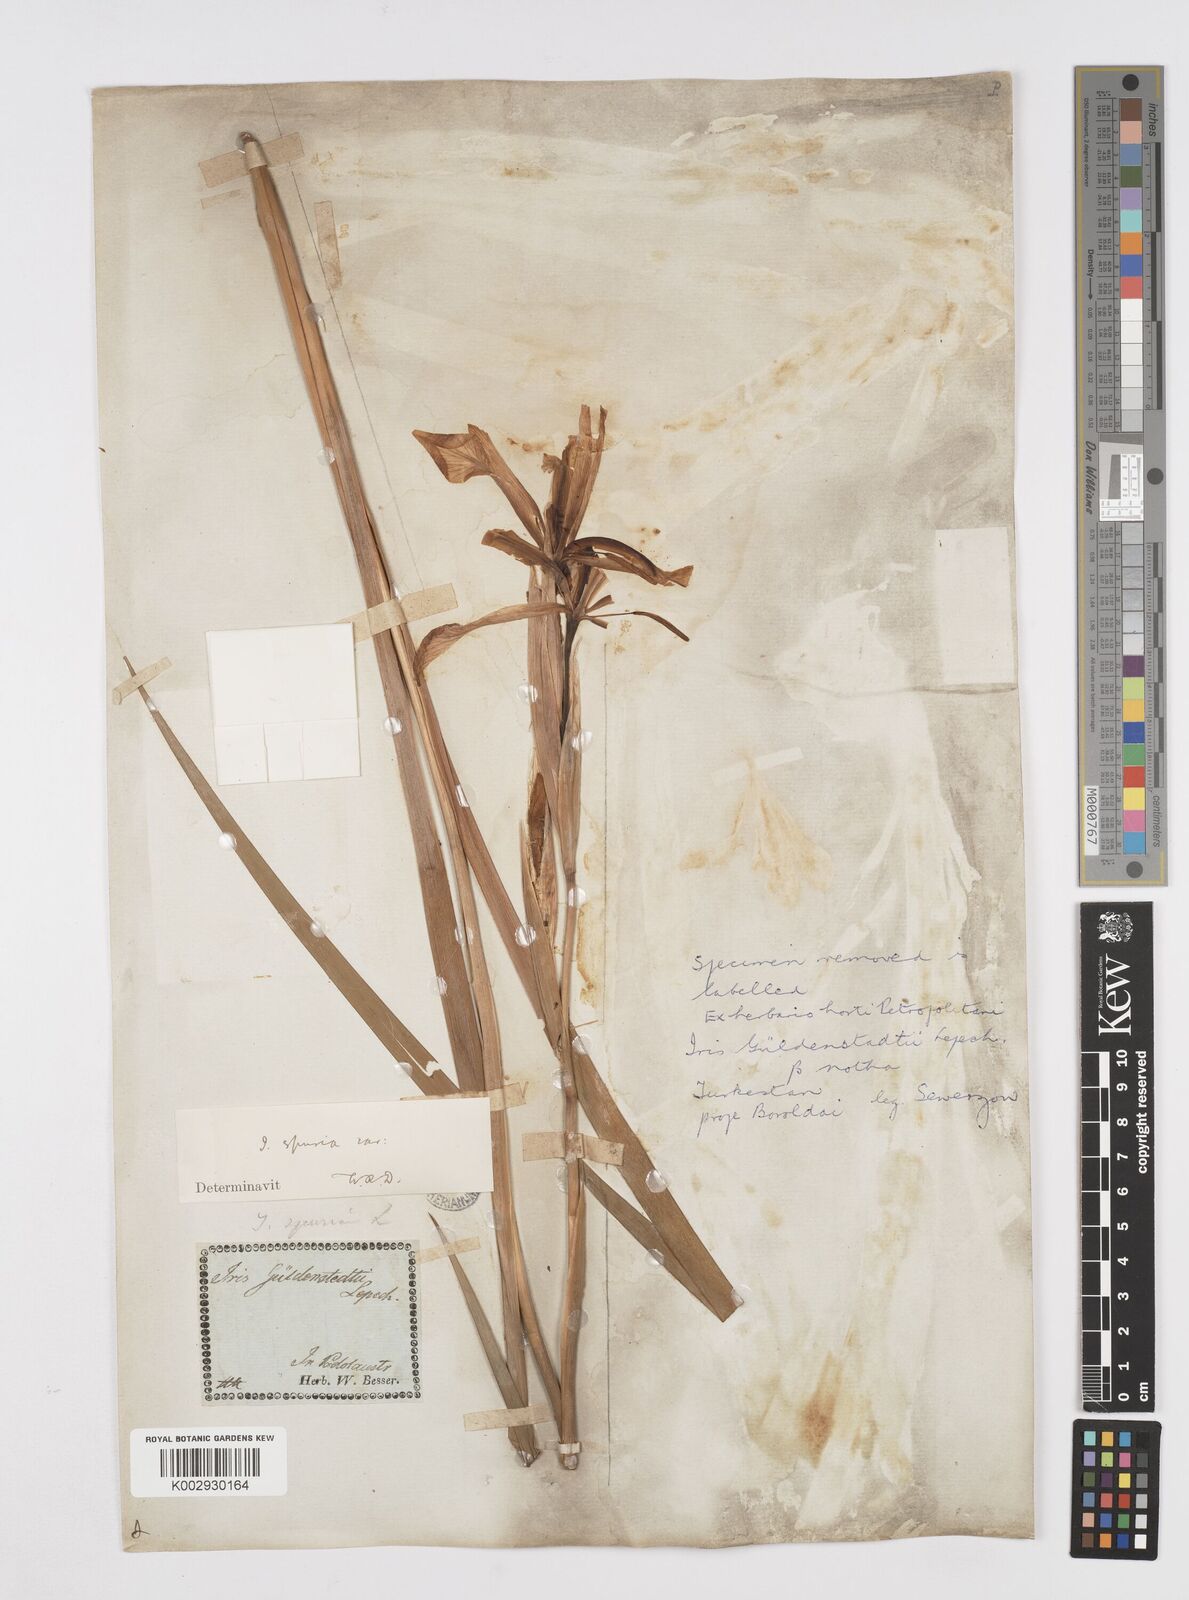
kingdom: Plantae
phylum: Tracheophyta
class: Liliopsida
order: Asparagales
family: Iridaceae
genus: Iris
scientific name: Iris halophila
